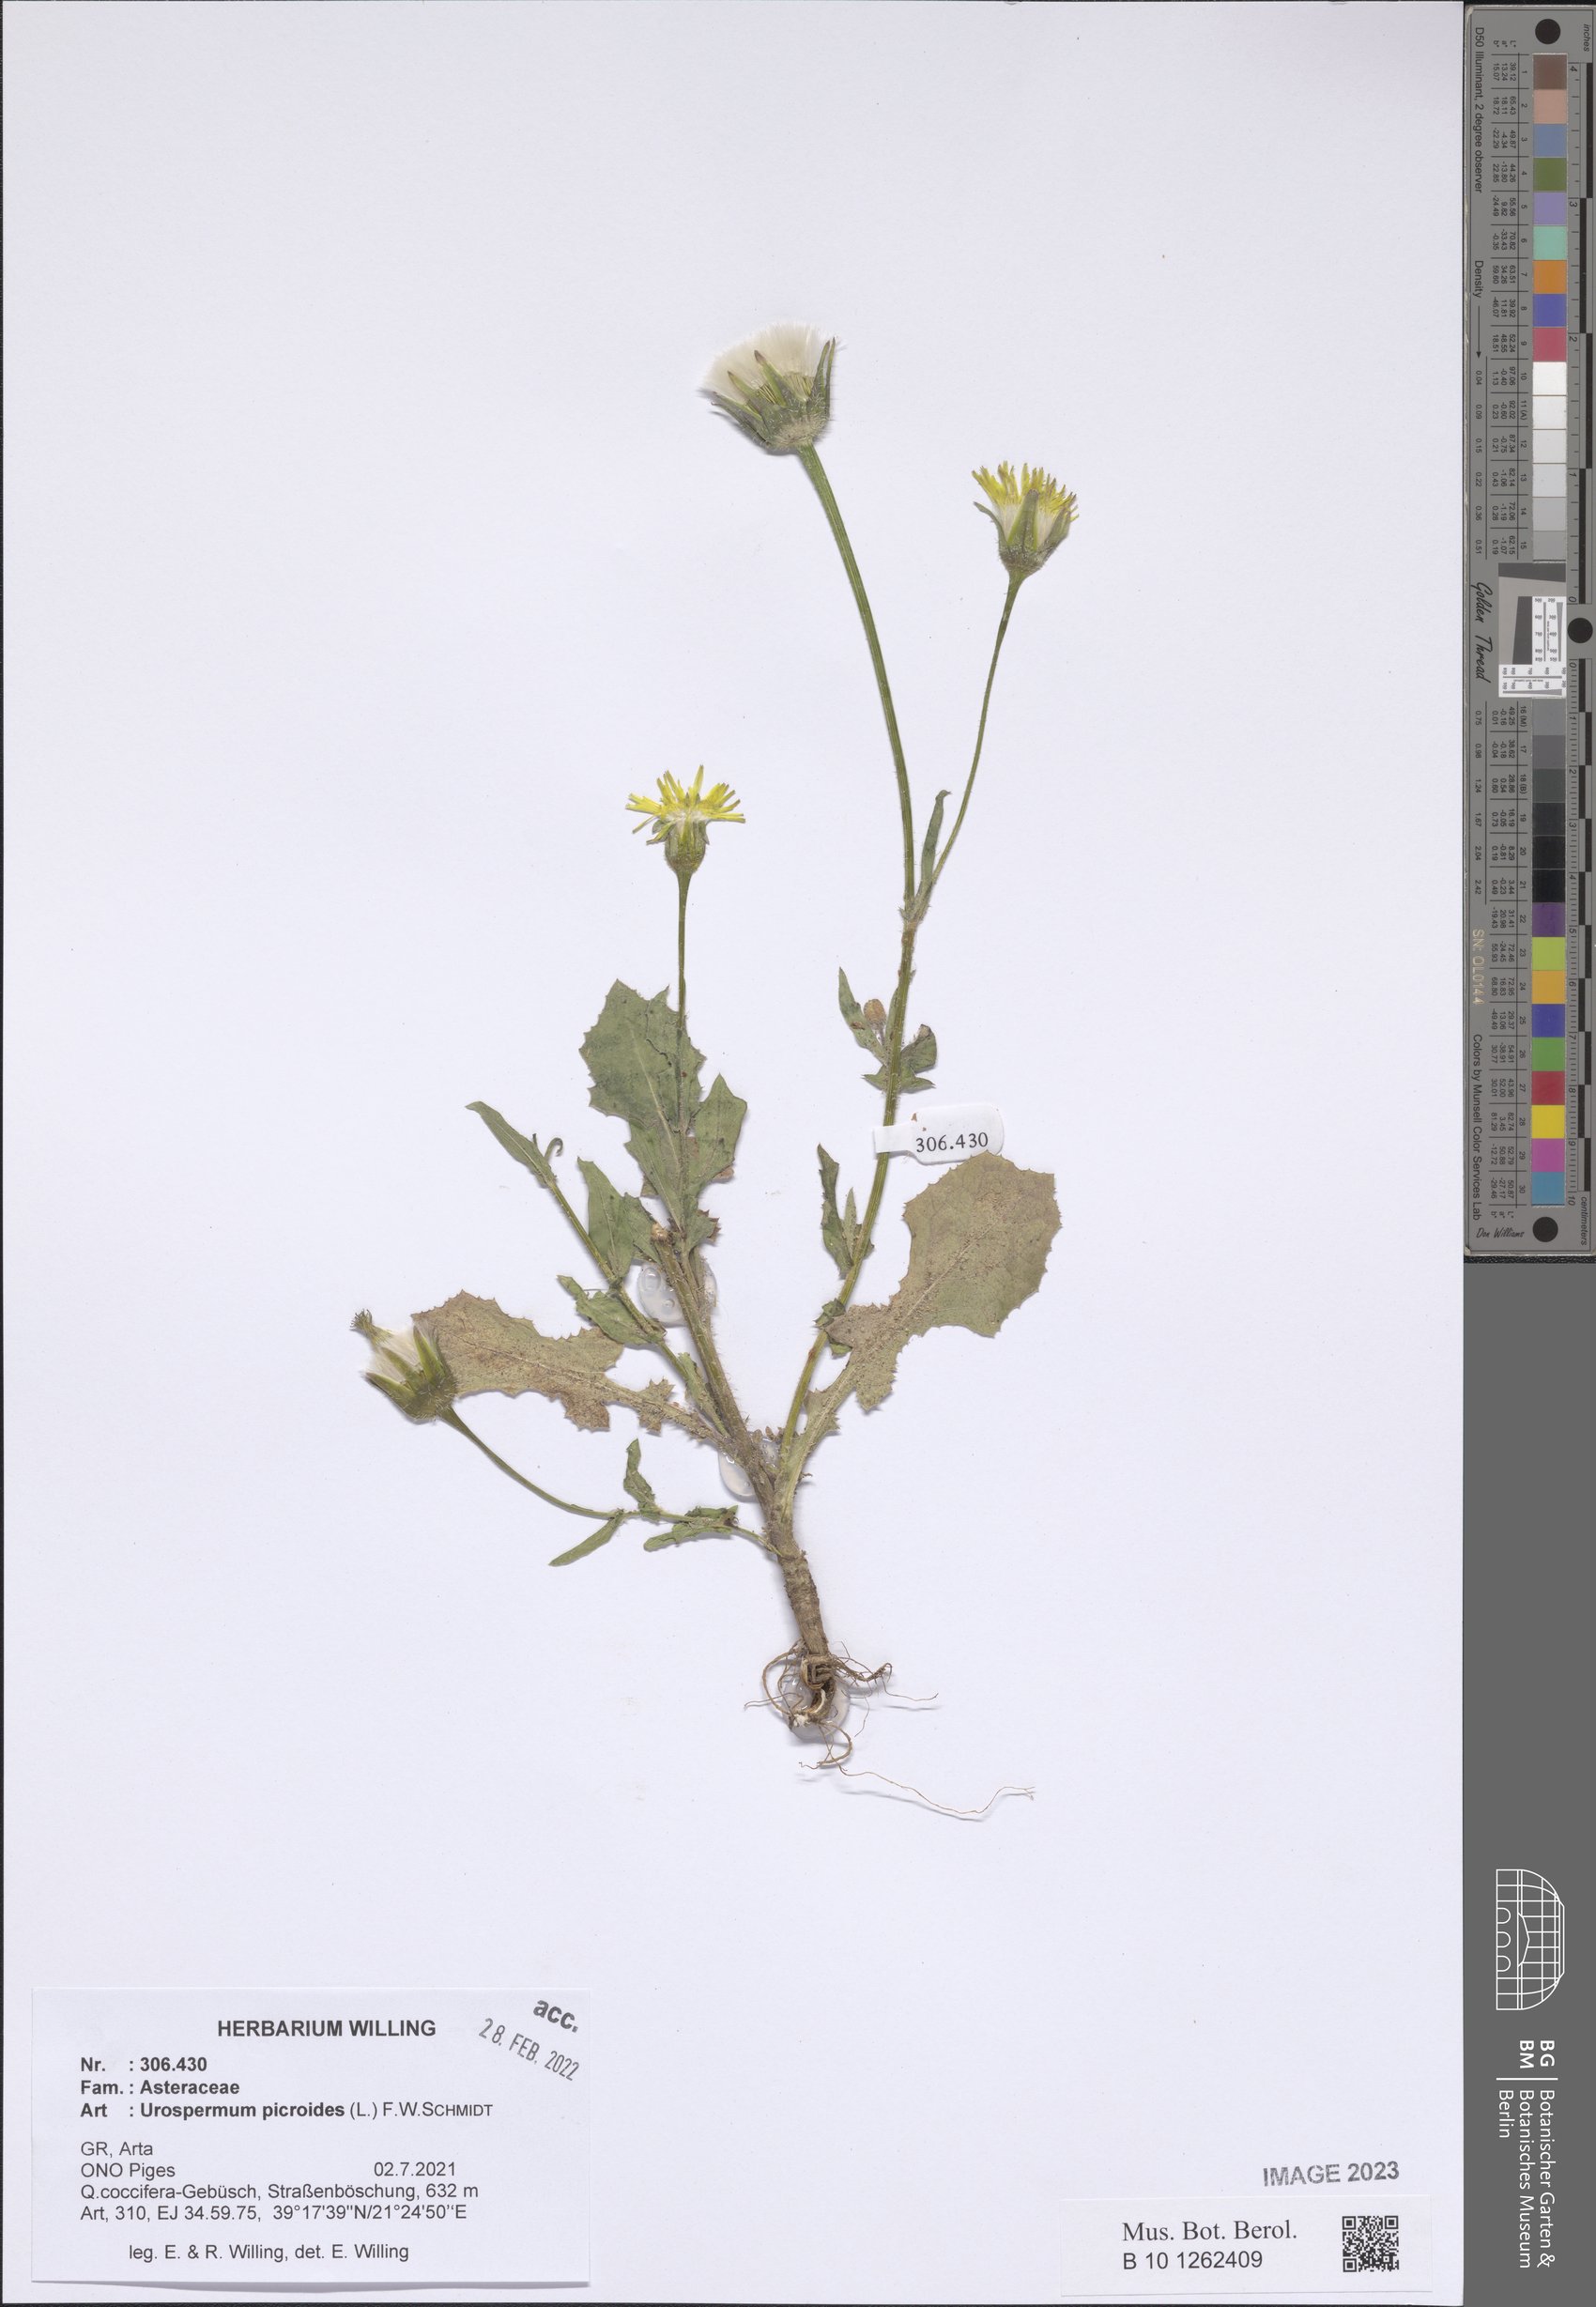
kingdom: Plantae
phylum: Tracheophyta
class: Magnoliopsida
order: Asterales
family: Asteraceae
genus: Urospermum
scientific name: Urospermum picroides
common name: False hawkbit
